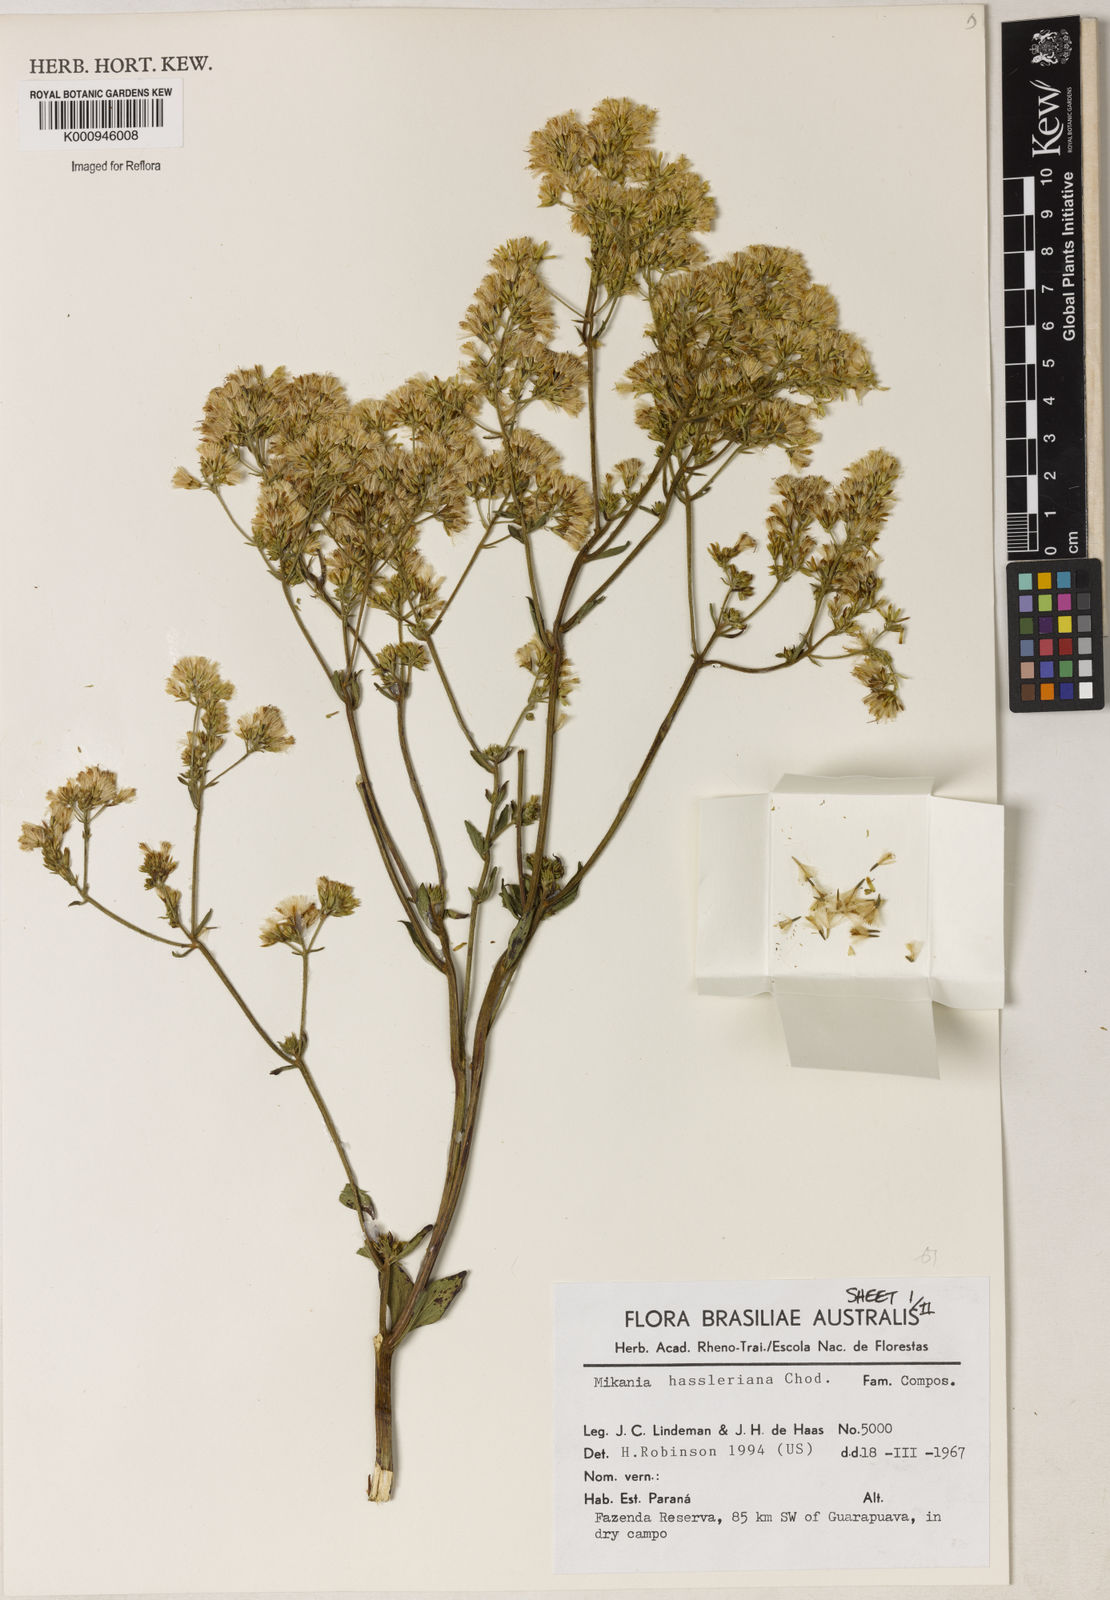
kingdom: Plantae
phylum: Tracheophyta
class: Magnoliopsida
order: Asterales
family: Asteraceae
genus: Mikania
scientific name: Mikania fulva
